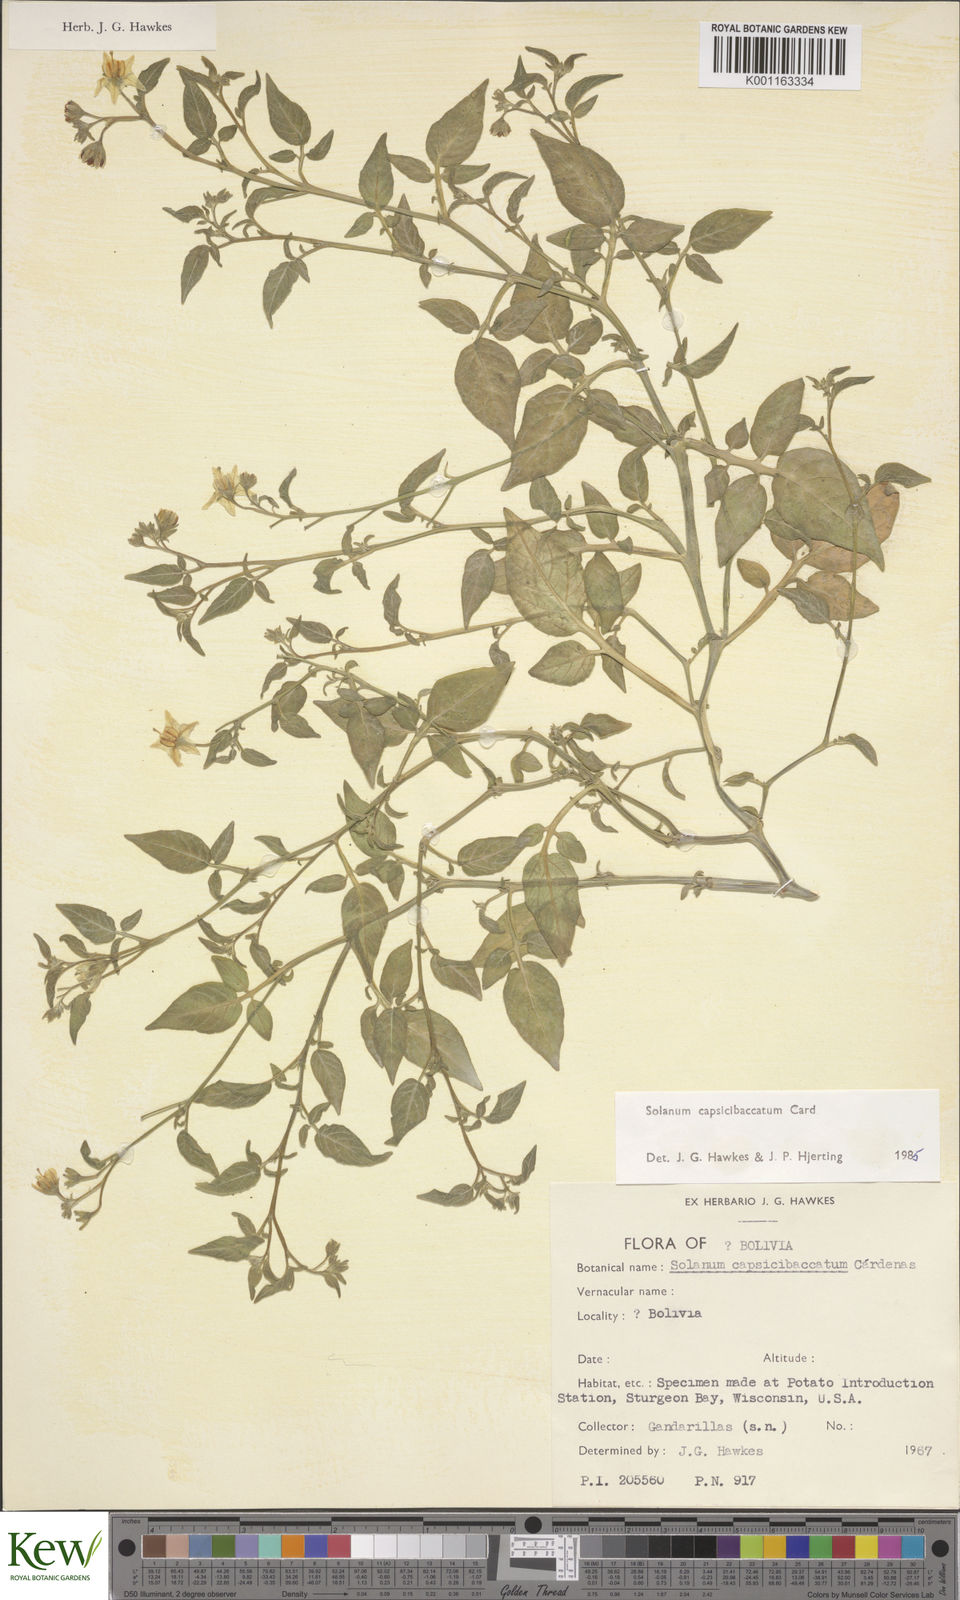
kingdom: Plantae
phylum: Tracheophyta
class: Magnoliopsida
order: Solanales
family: Solanaceae
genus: Solanum
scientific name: Solanum stipuloideum
